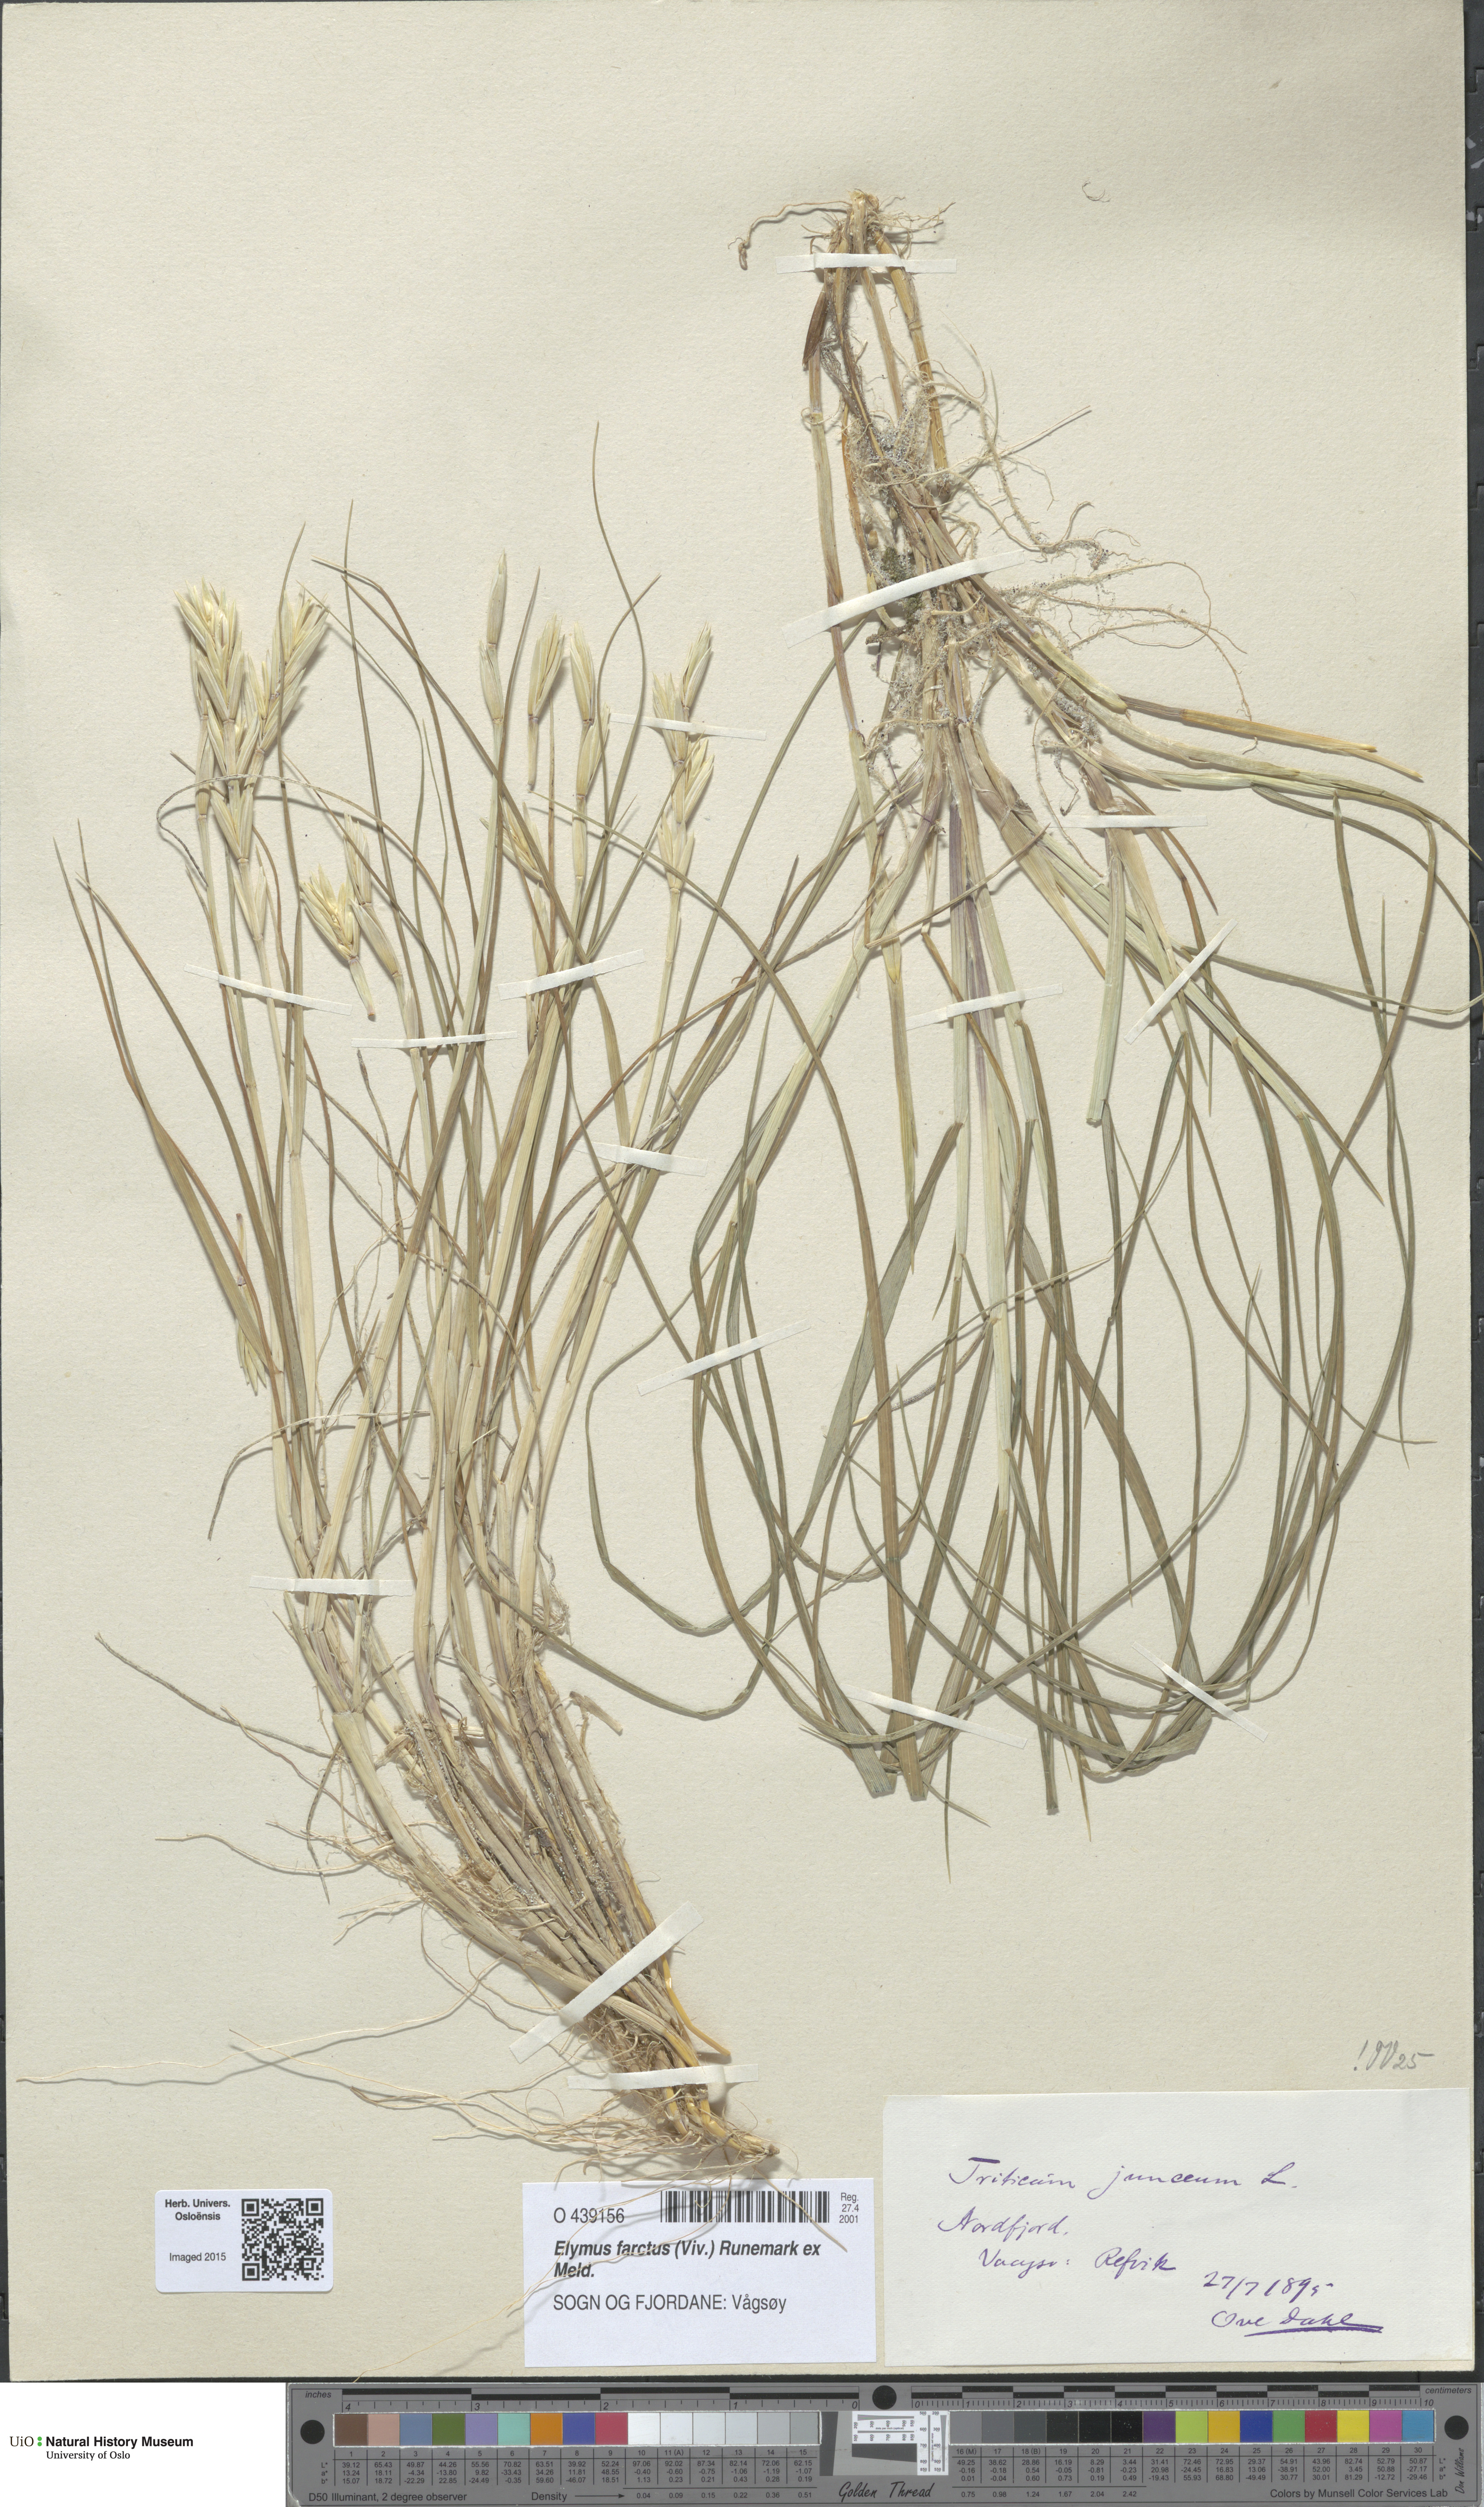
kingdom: Plantae
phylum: Tracheophyta
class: Liliopsida
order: Poales
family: Poaceae
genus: Thinopyrum
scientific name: Thinopyrum junceum
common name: Russian wheatgrass
